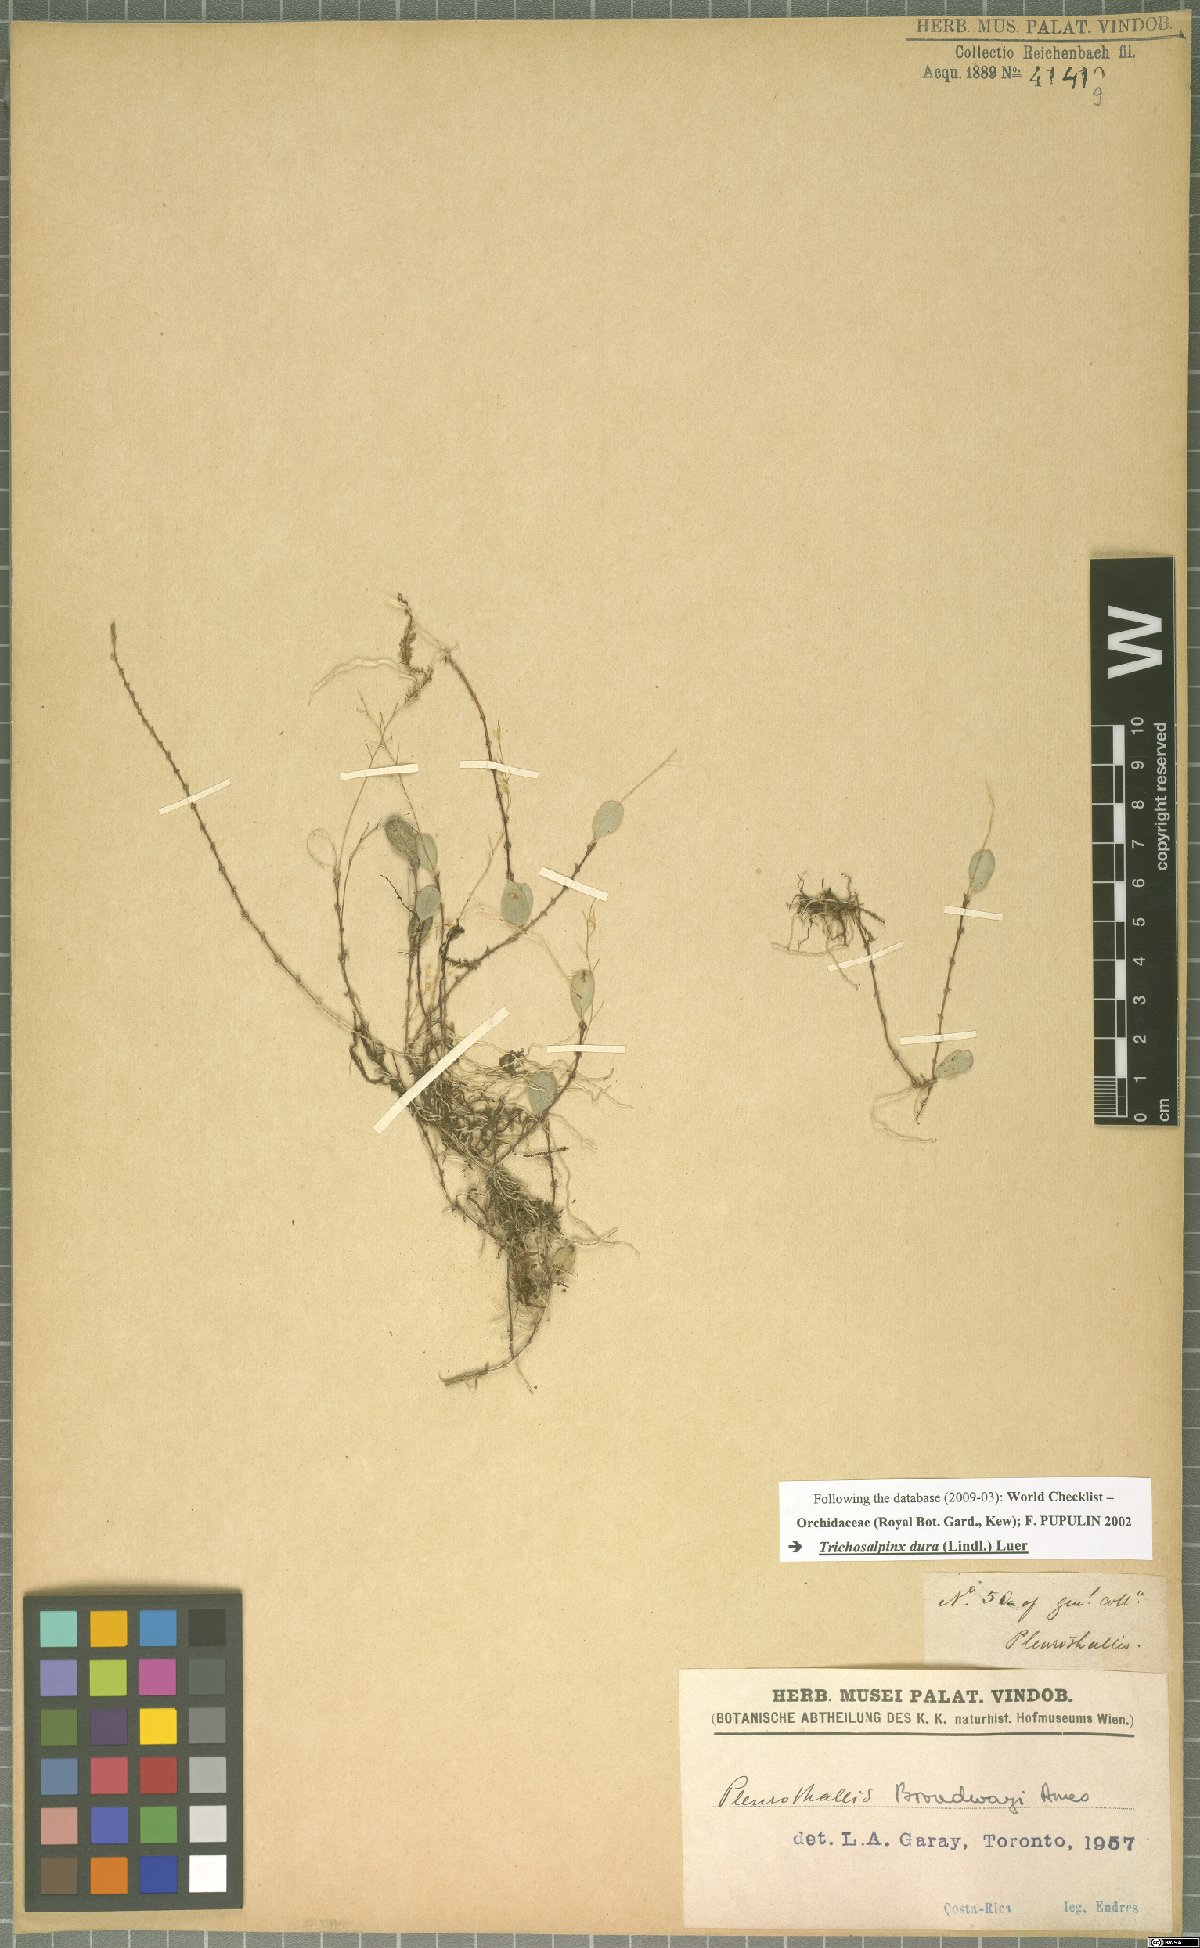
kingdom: Plantae
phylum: Tracheophyta
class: Liliopsida
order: Asparagales
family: Orchidaceae
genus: Trichosalpinx
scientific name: Trichosalpinx dura
